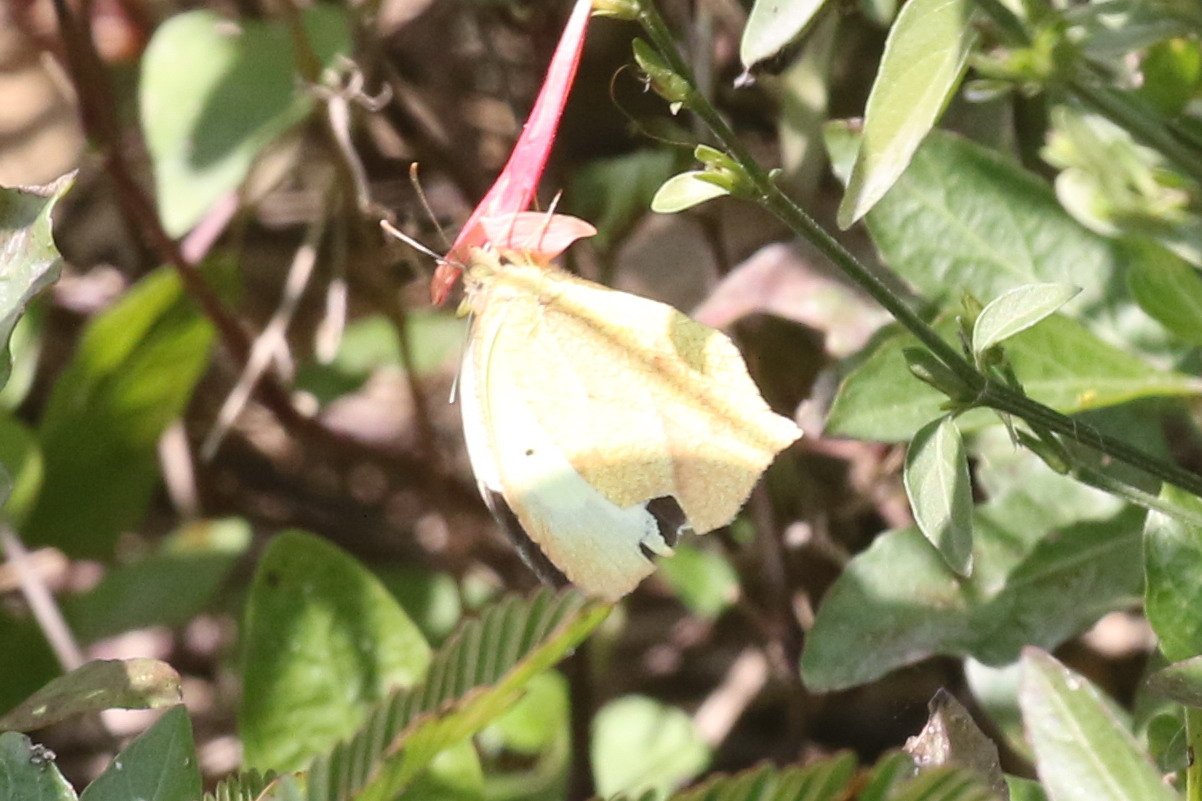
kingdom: Animalia
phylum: Arthropoda
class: Insecta
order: Lepidoptera
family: Pieridae
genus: Eurema
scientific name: Eurema mexicana
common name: Mexican Yellow
